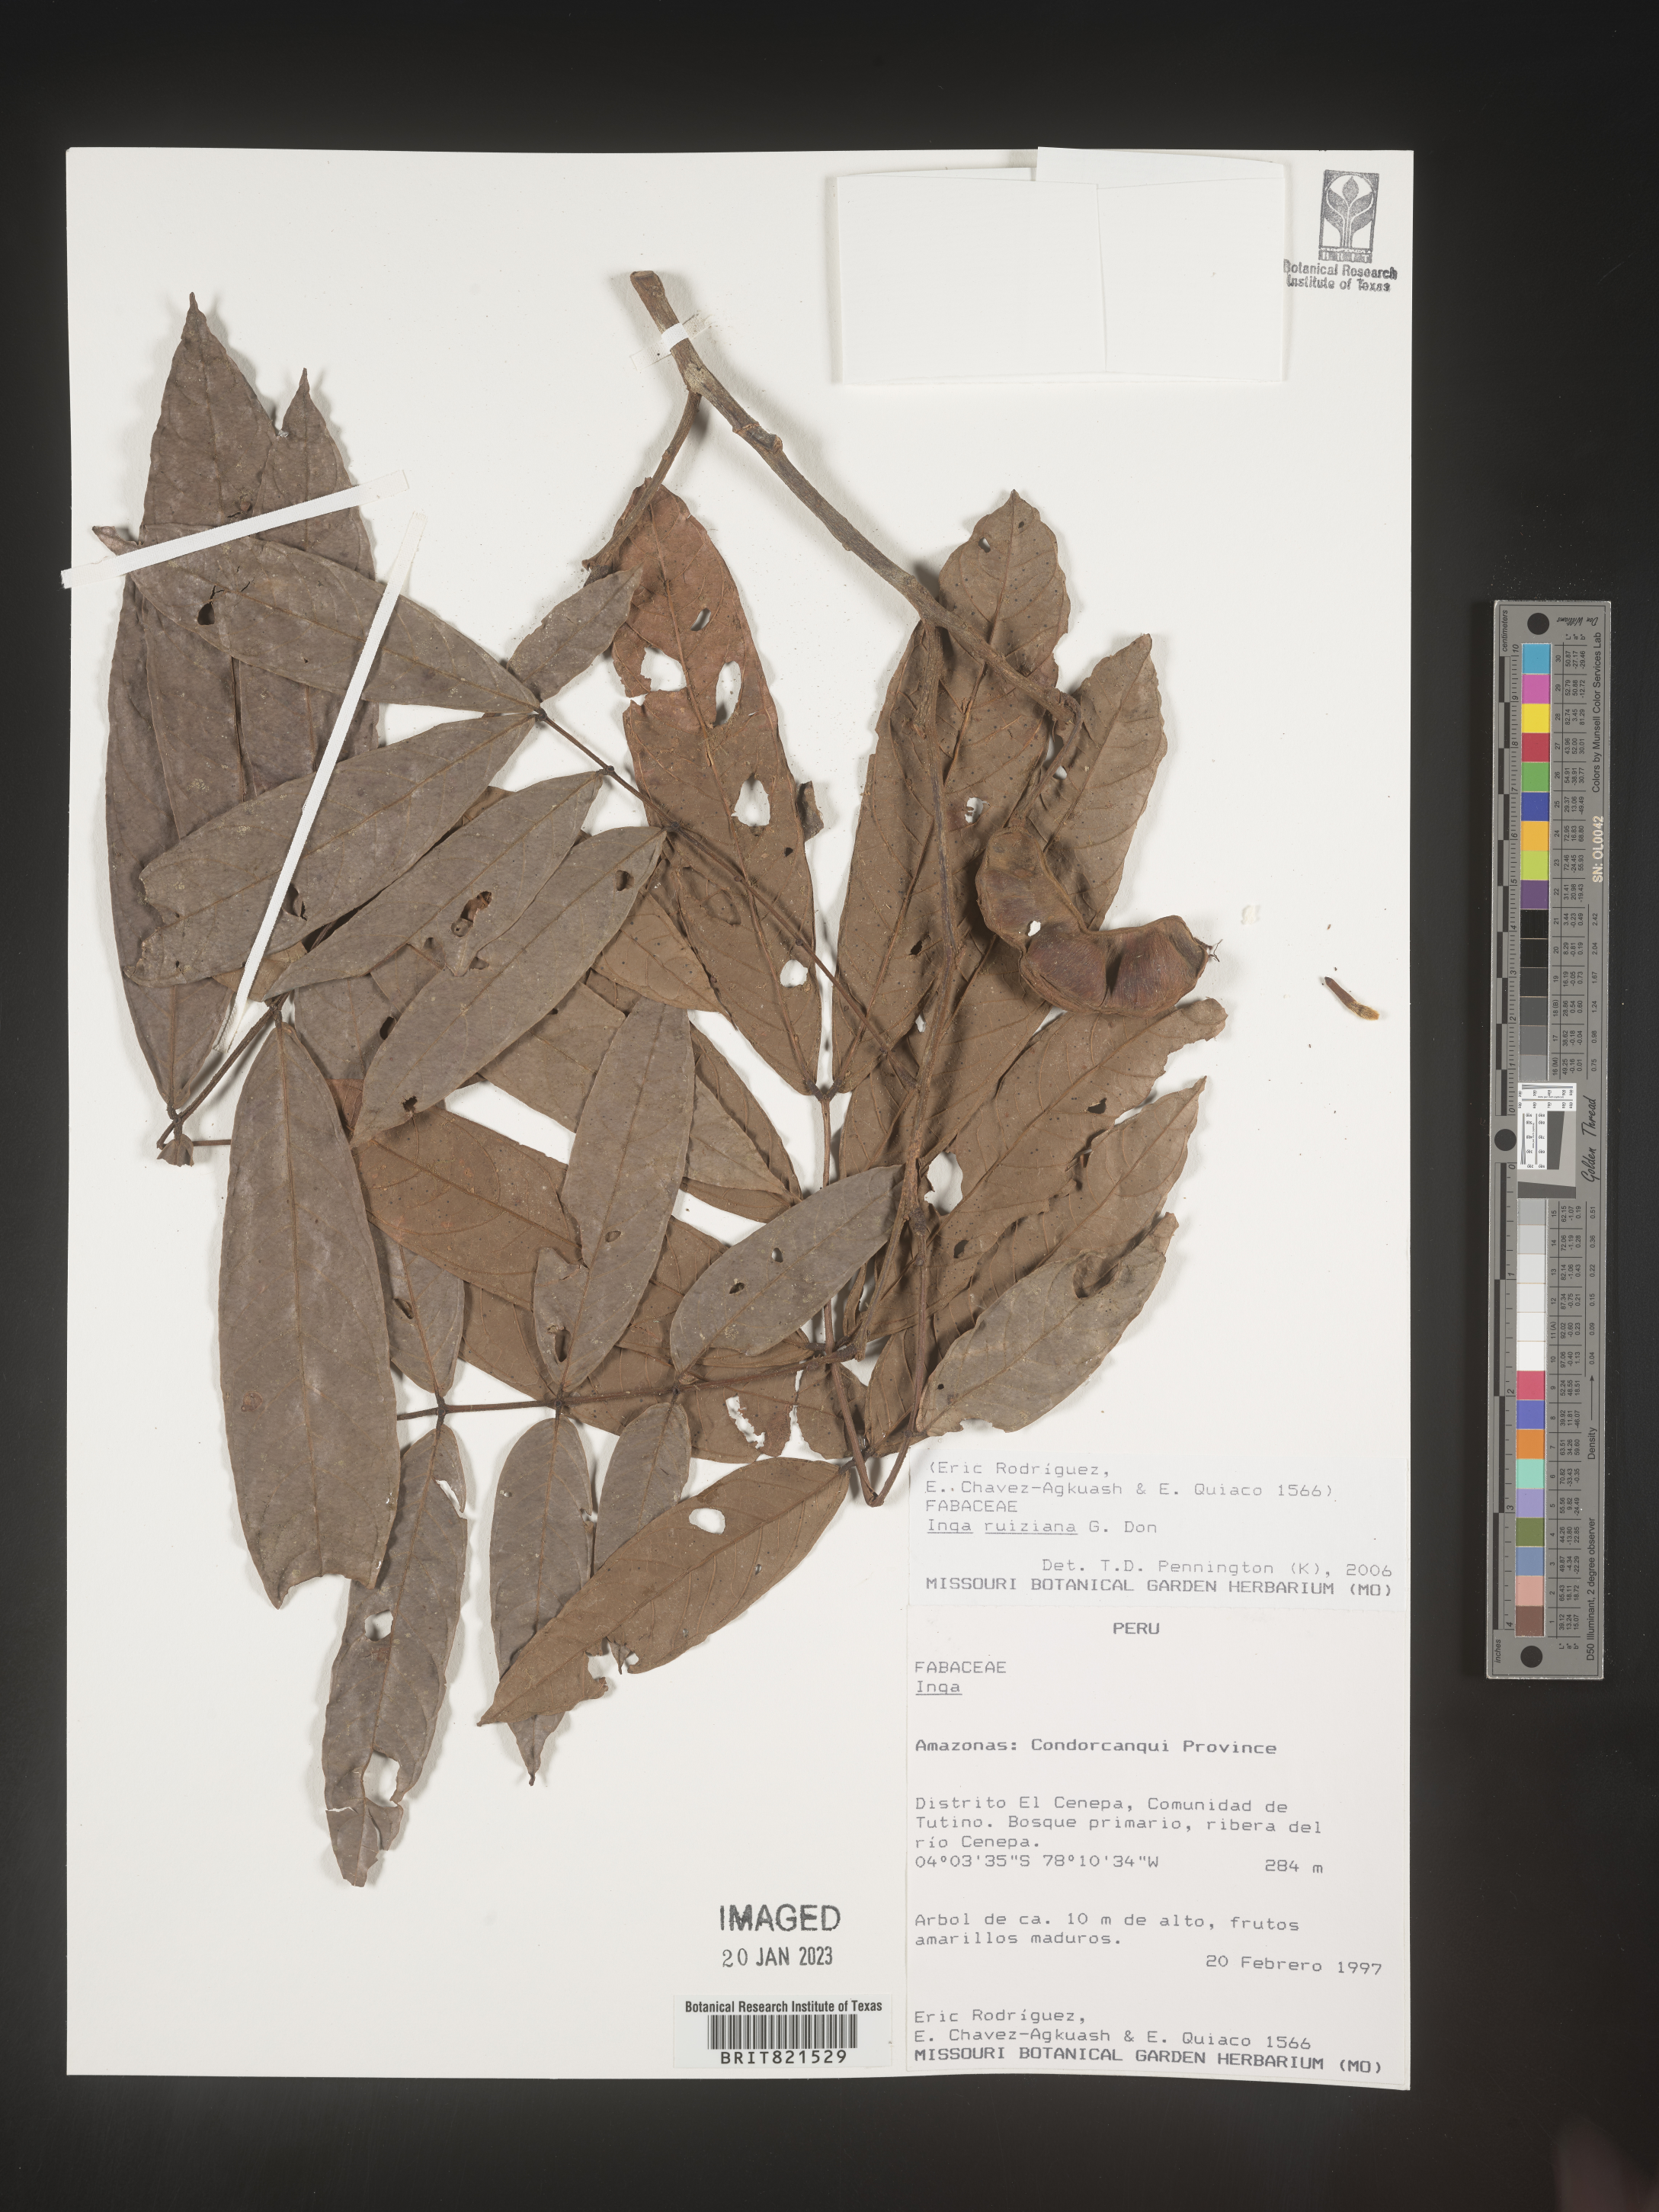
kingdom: Plantae
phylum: Tracheophyta
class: Magnoliopsida
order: Fabales
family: Fabaceae
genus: Inga
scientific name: Inga
